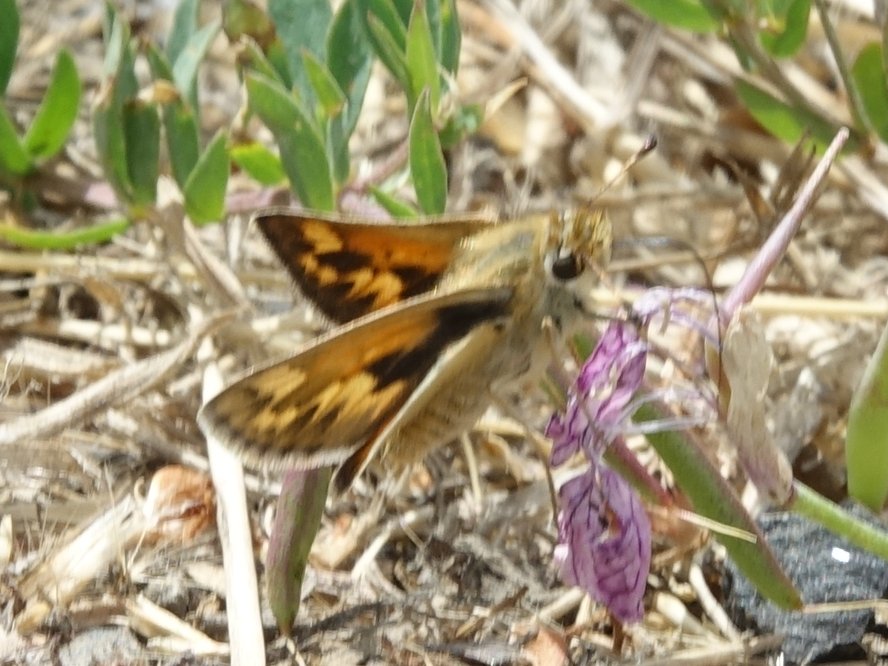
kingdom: Animalia
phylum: Arthropoda
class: Insecta
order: Lepidoptera
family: Hesperiidae
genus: Polites
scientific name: Polites sabuleti
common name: Sandhill Skipper
